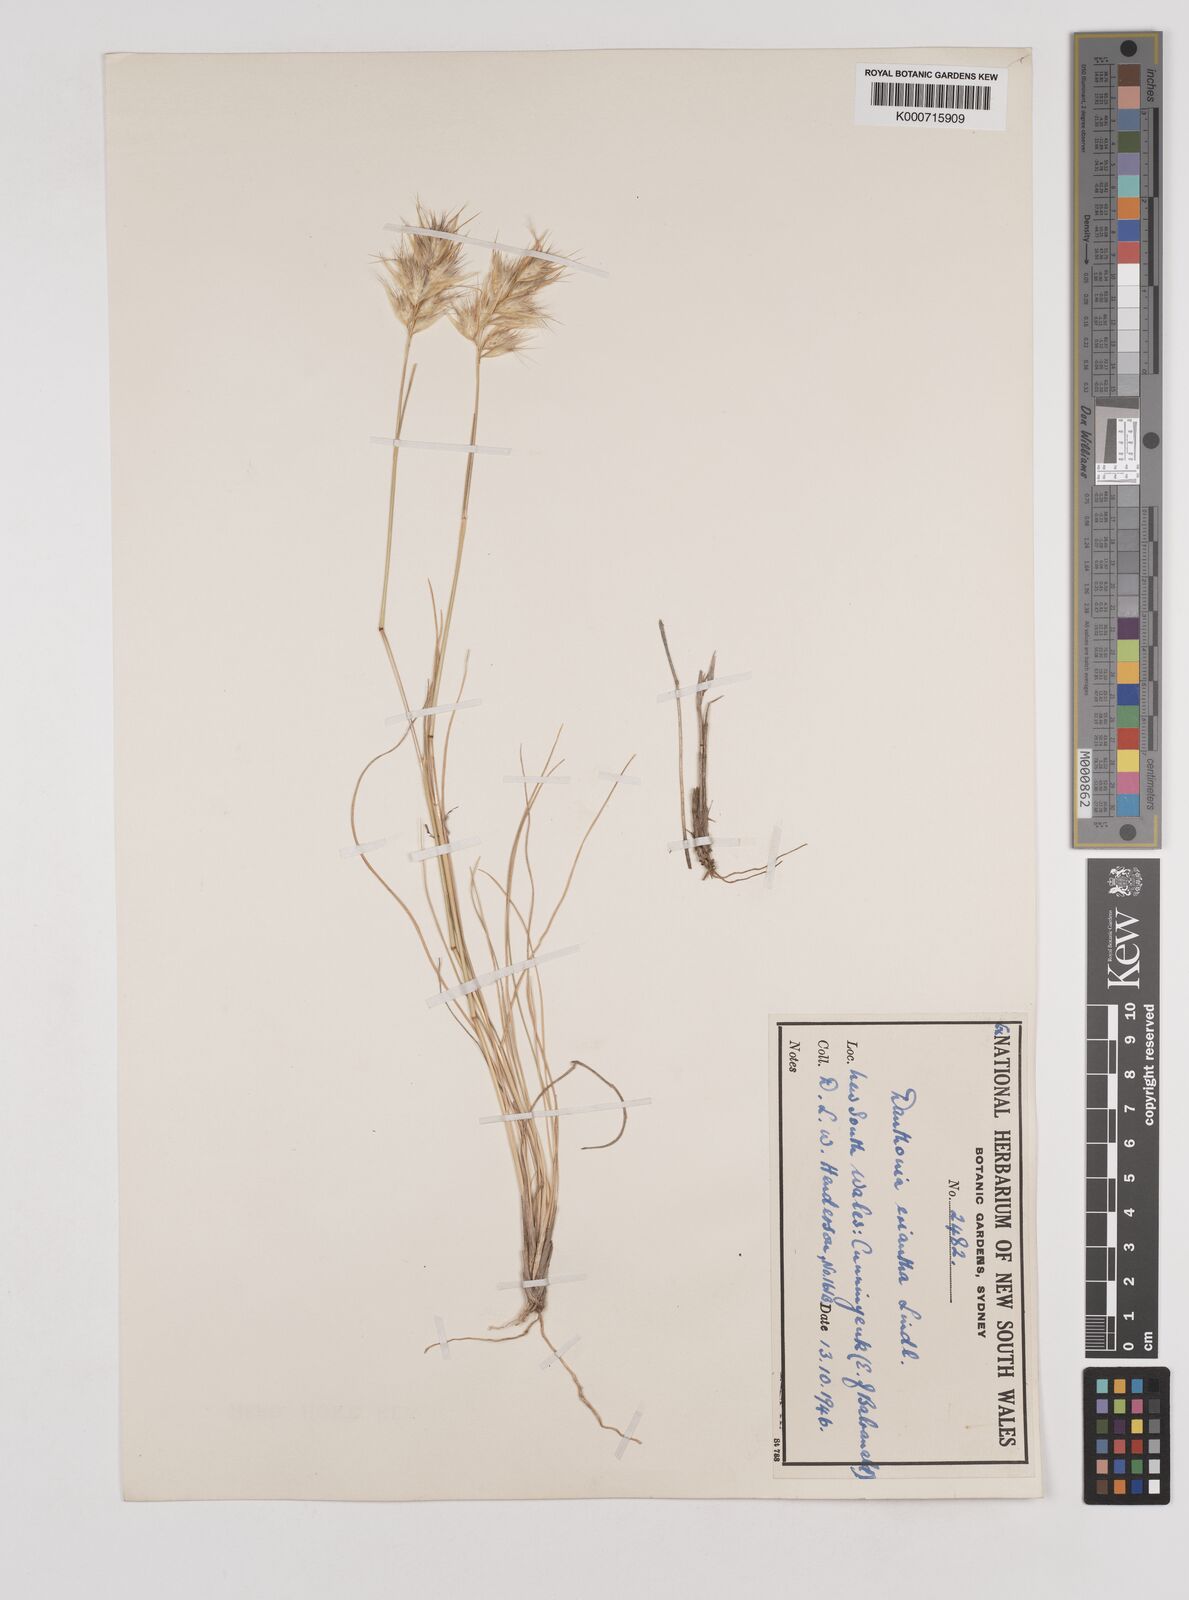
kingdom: Plantae
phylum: Tracheophyta
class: Liliopsida
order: Poales
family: Poaceae
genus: Rytidosperma
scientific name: Rytidosperma erianthum
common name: Hill wallaby grass
